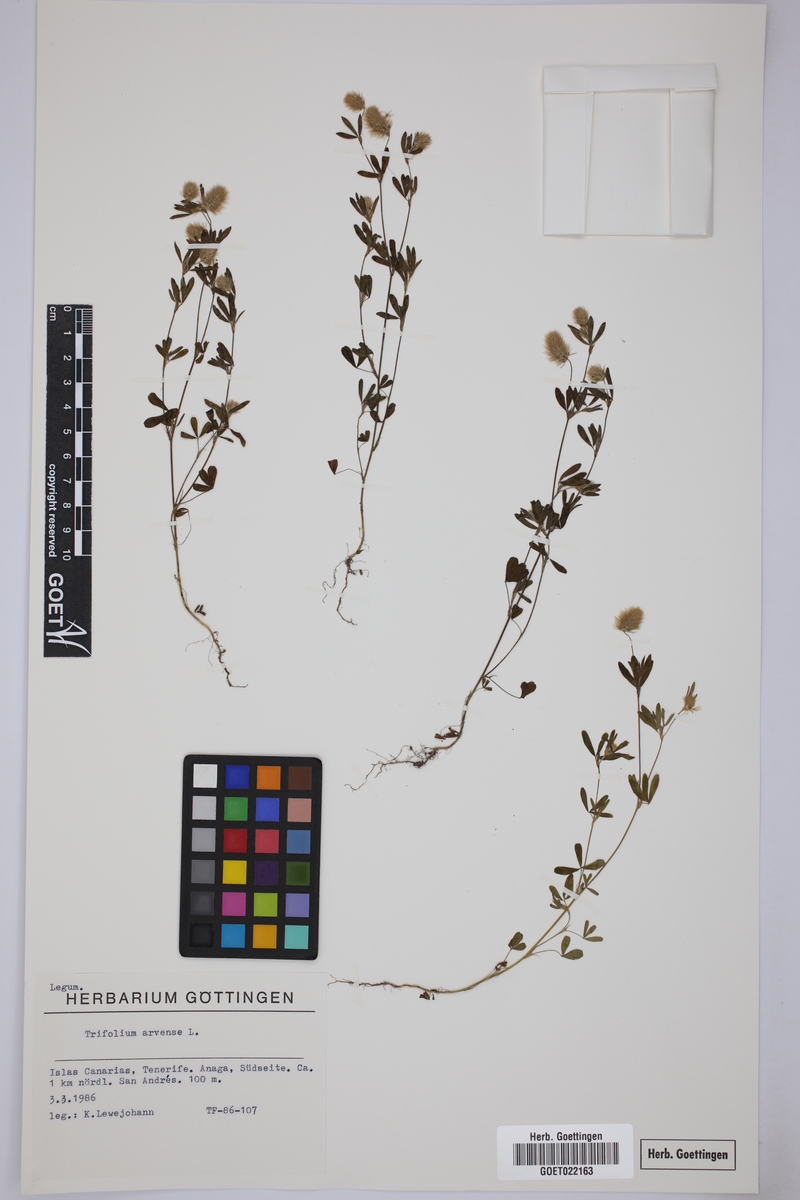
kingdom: Plantae
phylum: Tracheophyta
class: Magnoliopsida
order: Fabales
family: Fabaceae
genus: Trifolium
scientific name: Trifolium arvense
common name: Hare's-foot clover
